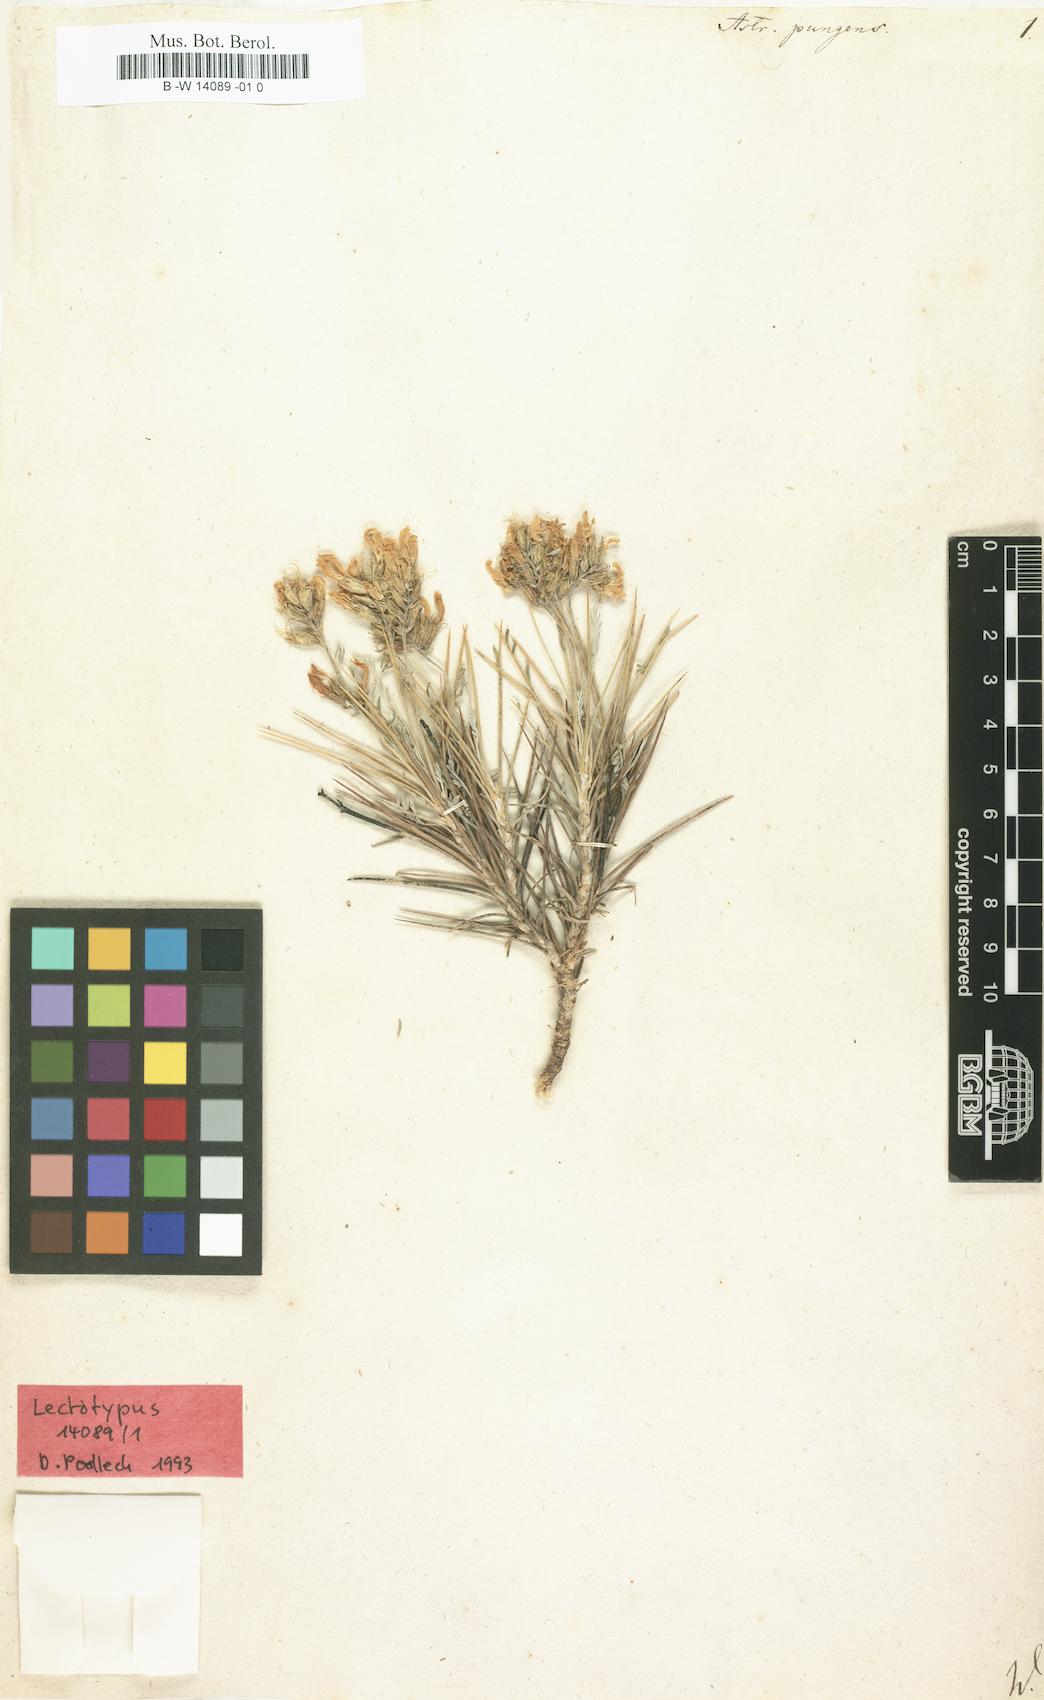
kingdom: Plantae
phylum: Tracheophyta
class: Magnoliopsida
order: Fabales
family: Fabaceae
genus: Astragalus
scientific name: Astragalus pungens
